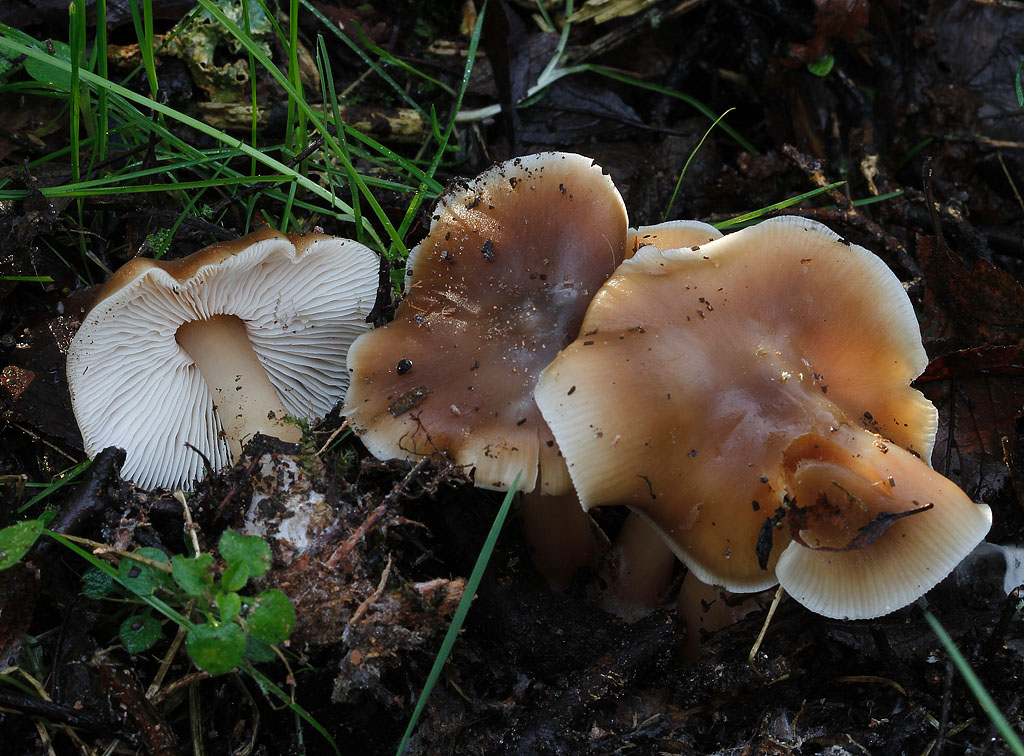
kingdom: Fungi
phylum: Basidiomycota
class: Agaricomycetes
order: Agaricales
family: Omphalotaceae
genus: Rhodocollybia
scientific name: Rhodocollybia asema
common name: horngrå fladhat
